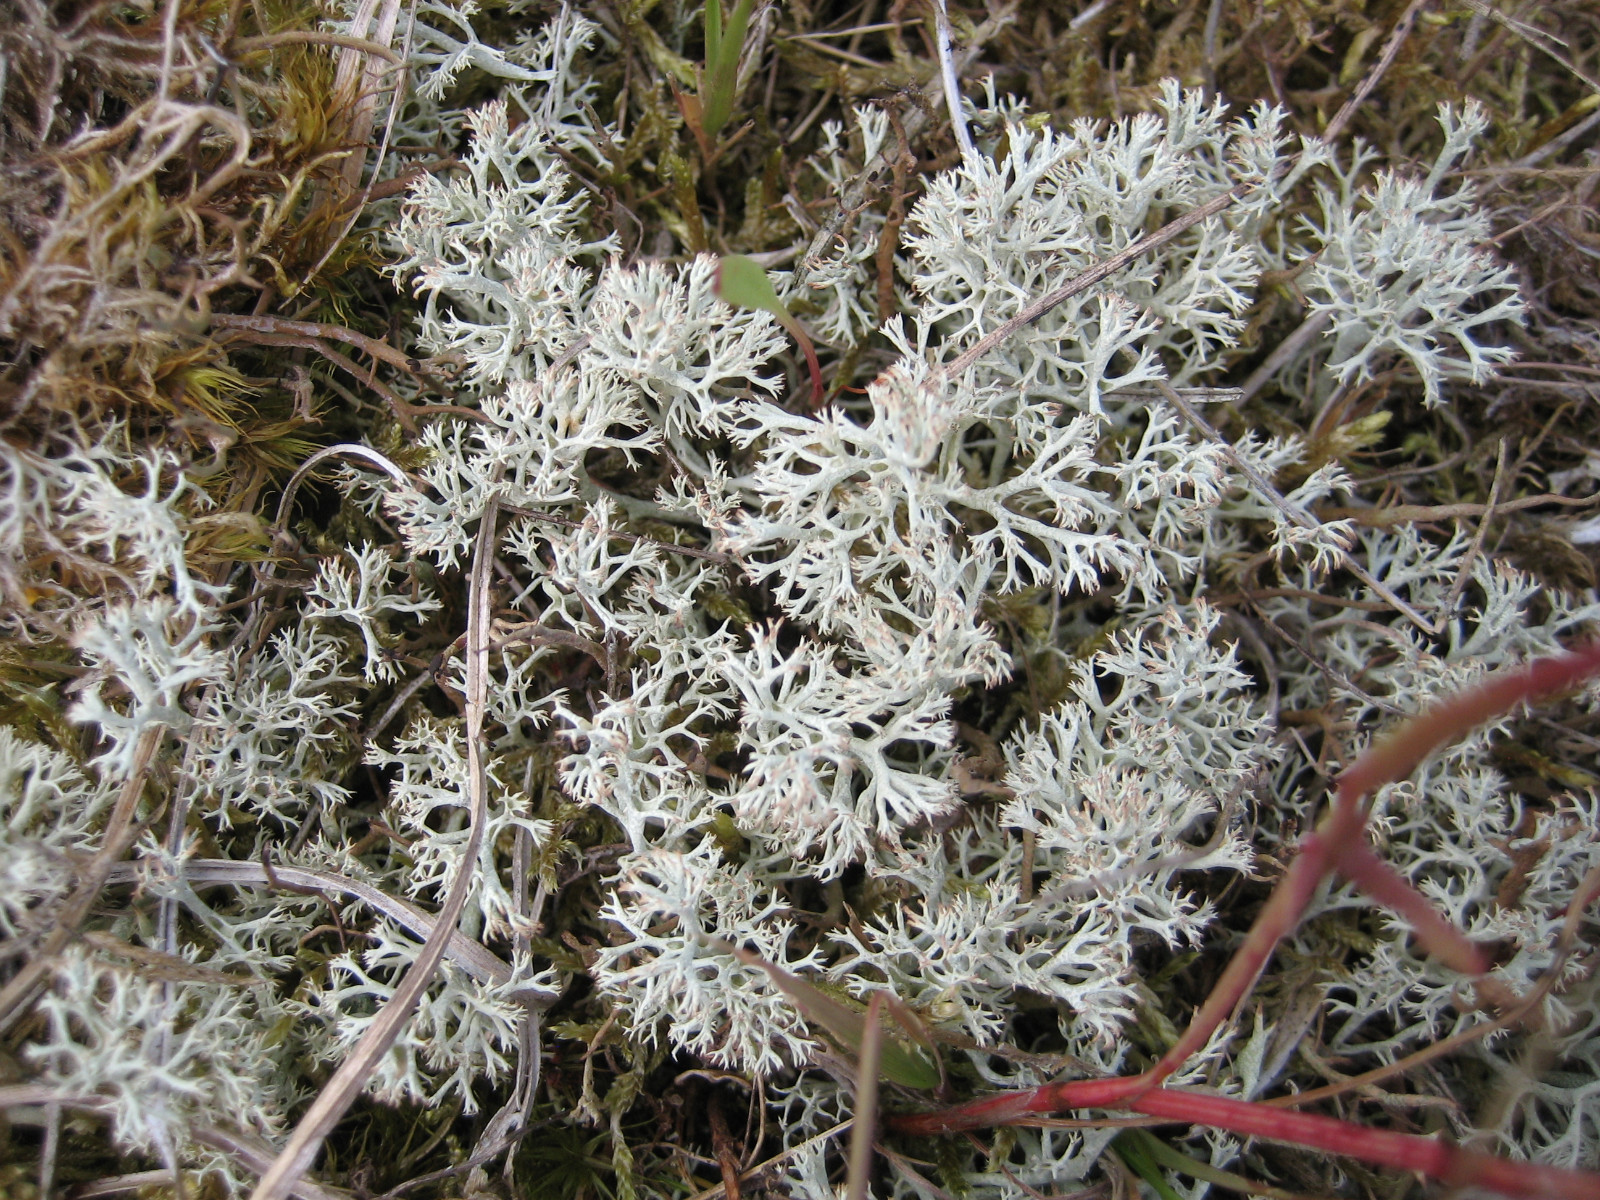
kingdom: Fungi
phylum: Ascomycota
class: Lecanoromycetes
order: Lecanorales
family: Cladoniaceae
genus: Cladonia
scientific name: Cladonia arbuscula
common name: gulhvid rensdyrlav
